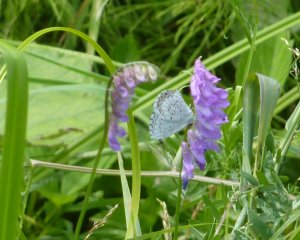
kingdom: Animalia
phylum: Arthropoda
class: Insecta
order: Lepidoptera
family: Lycaenidae
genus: Celastrina
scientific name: Celastrina
